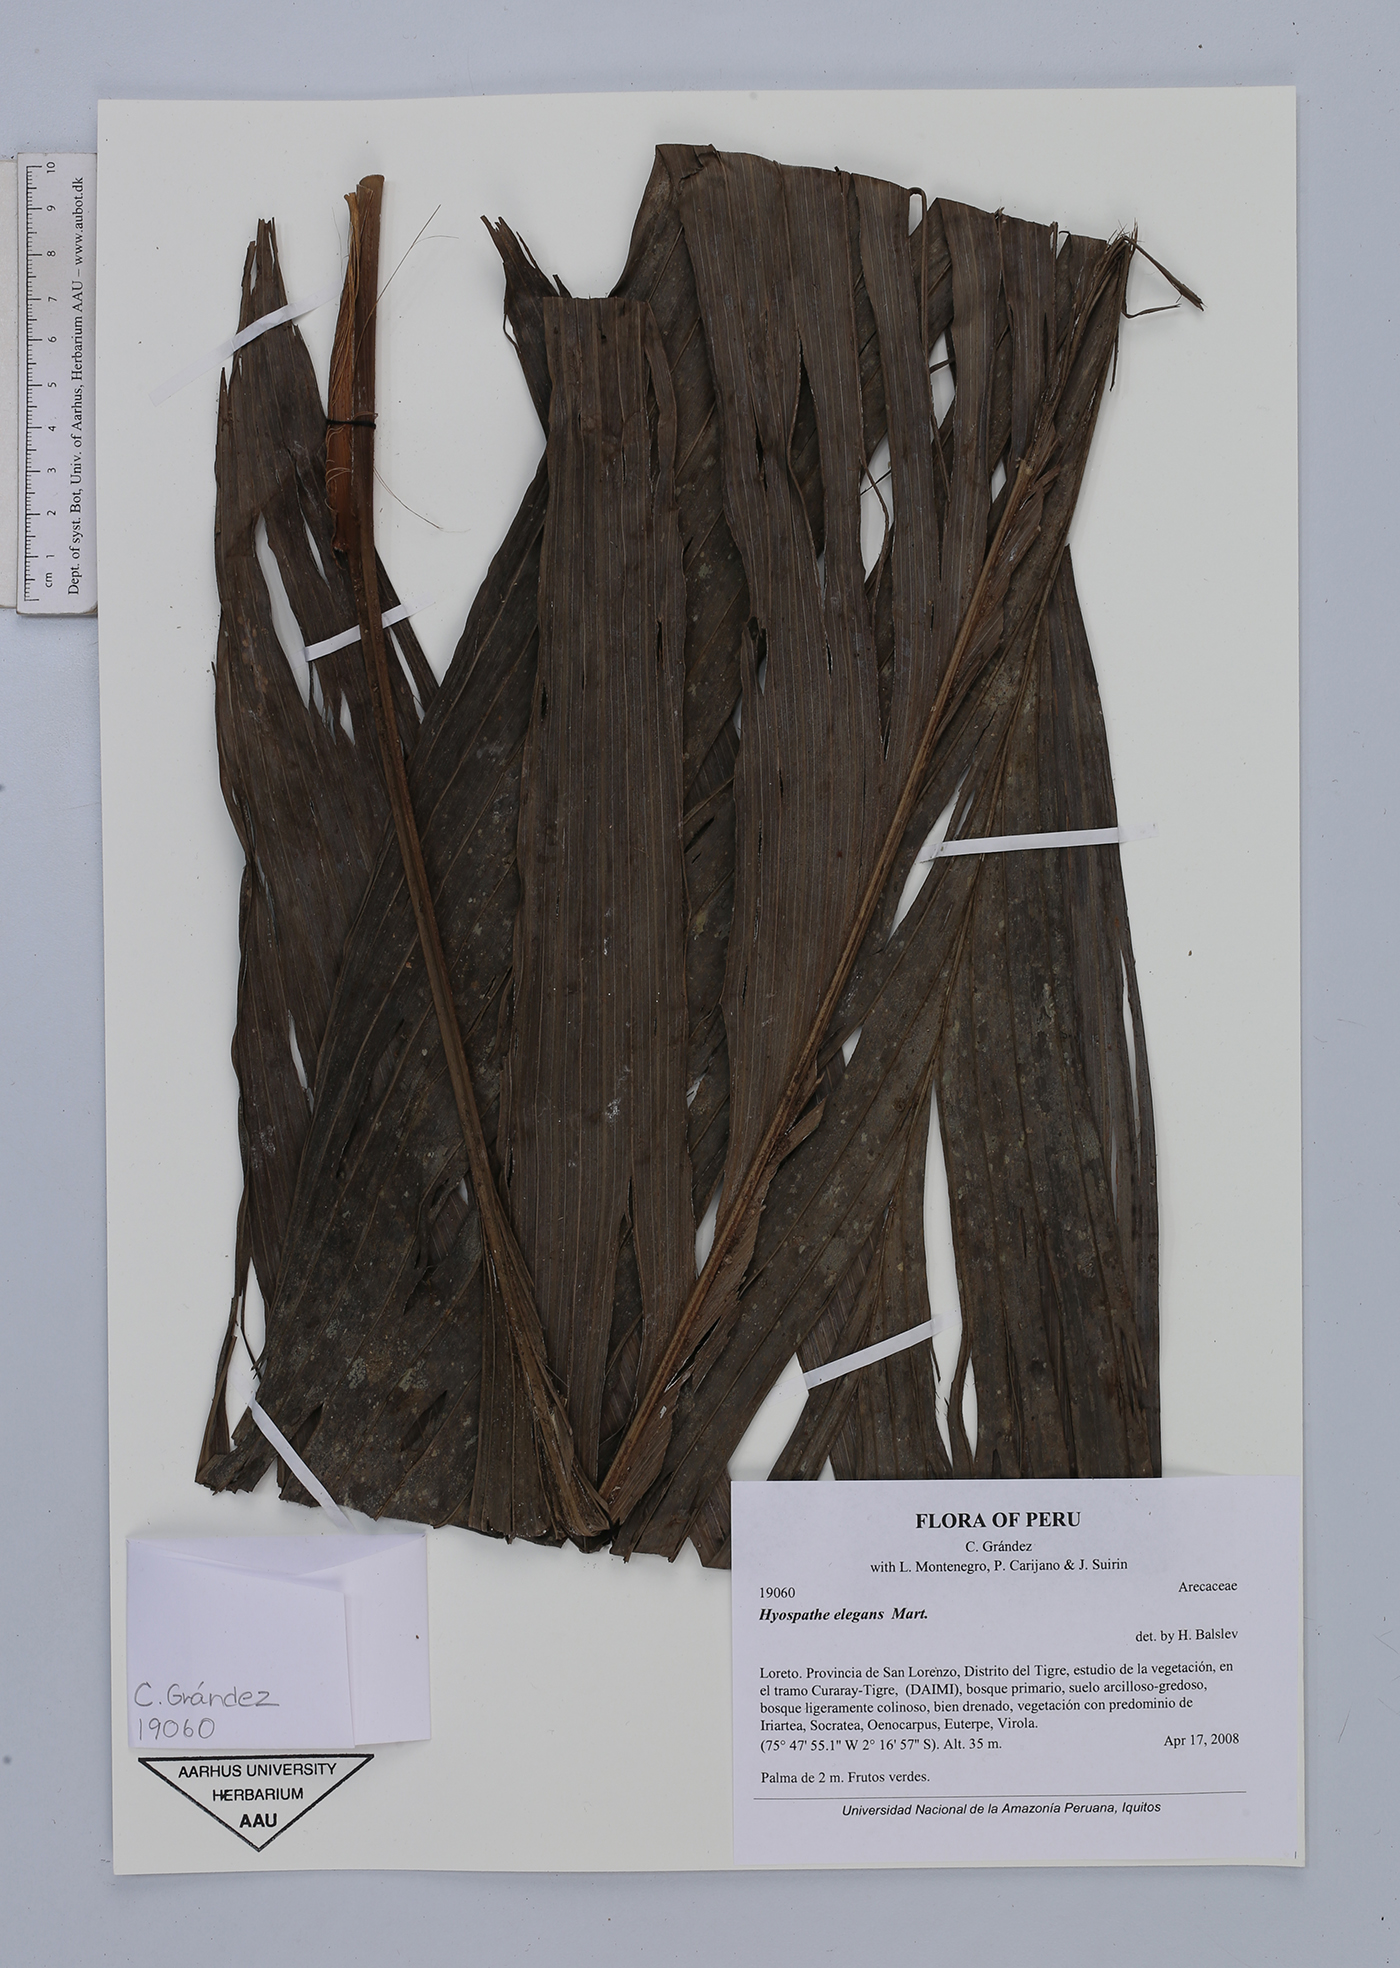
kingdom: Plantae
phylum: Tracheophyta
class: Liliopsida
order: Arecales
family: Arecaceae
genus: Hyospathe
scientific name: Hyospathe elegans
